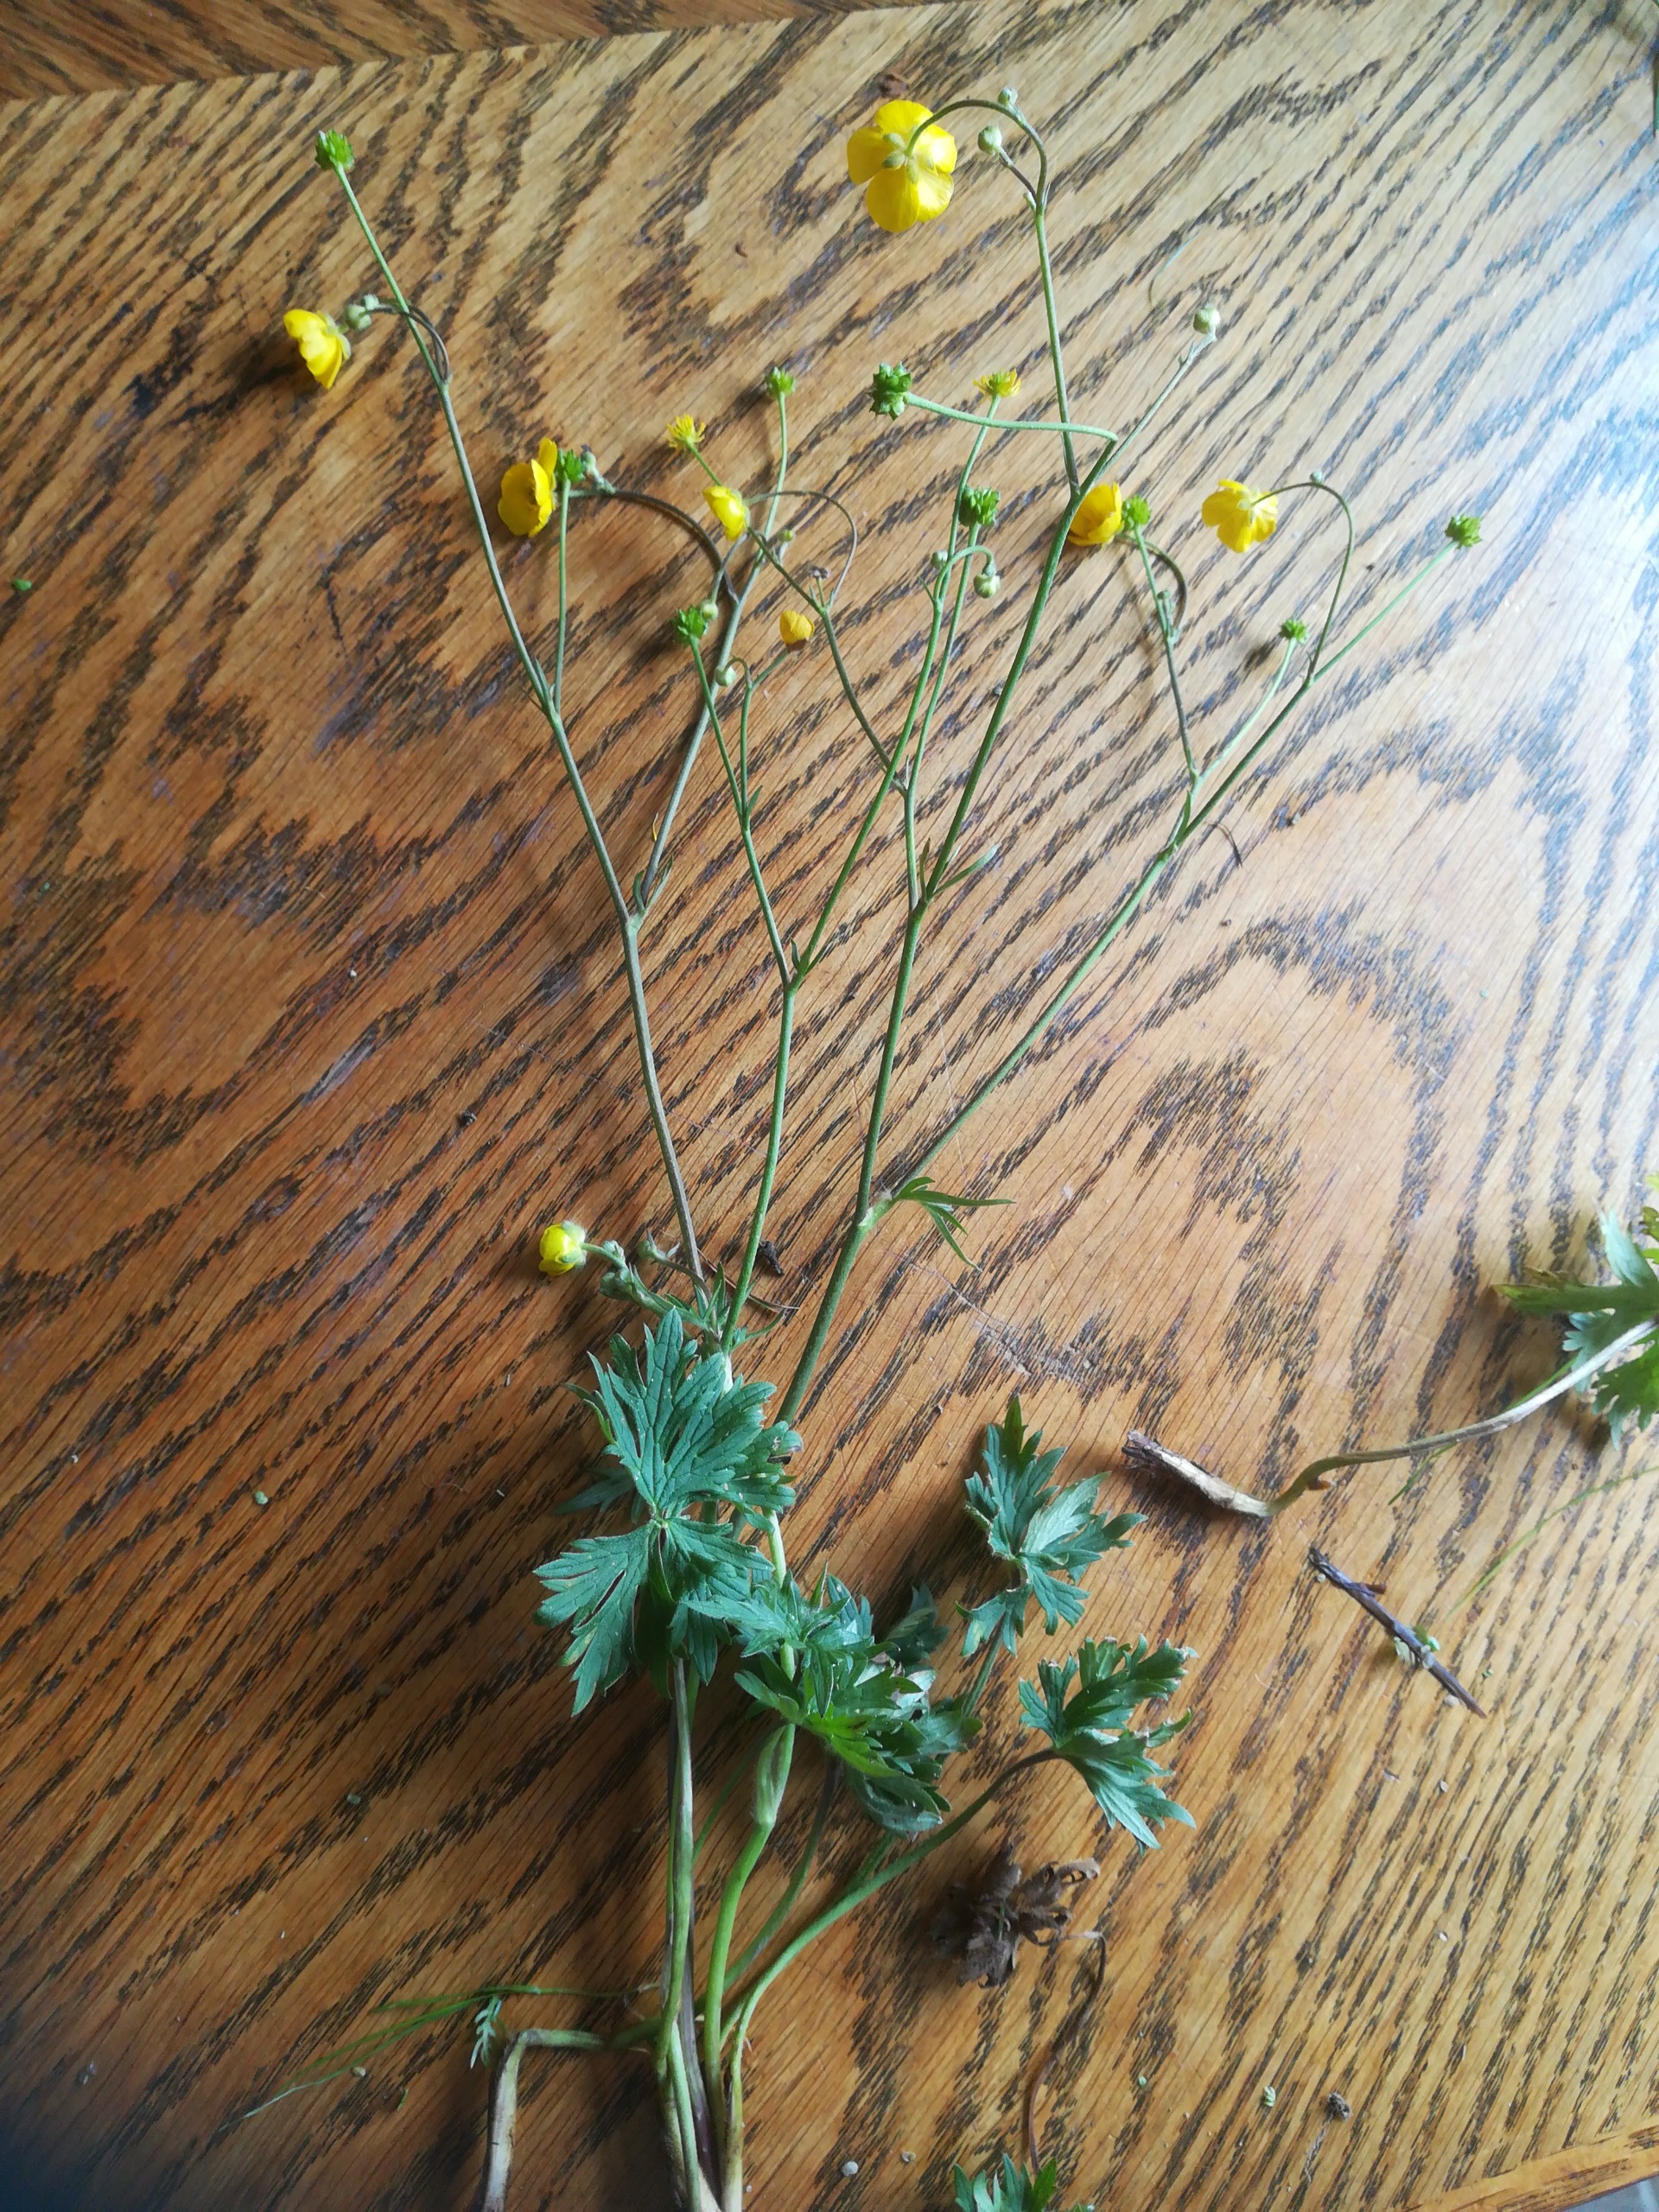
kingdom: Plantae
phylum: Tracheophyta
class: Magnoliopsida
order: Ranunculales
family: Ranunculaceae
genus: Ranunculus
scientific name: Ranunculus acris
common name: Bidende ranunkel
